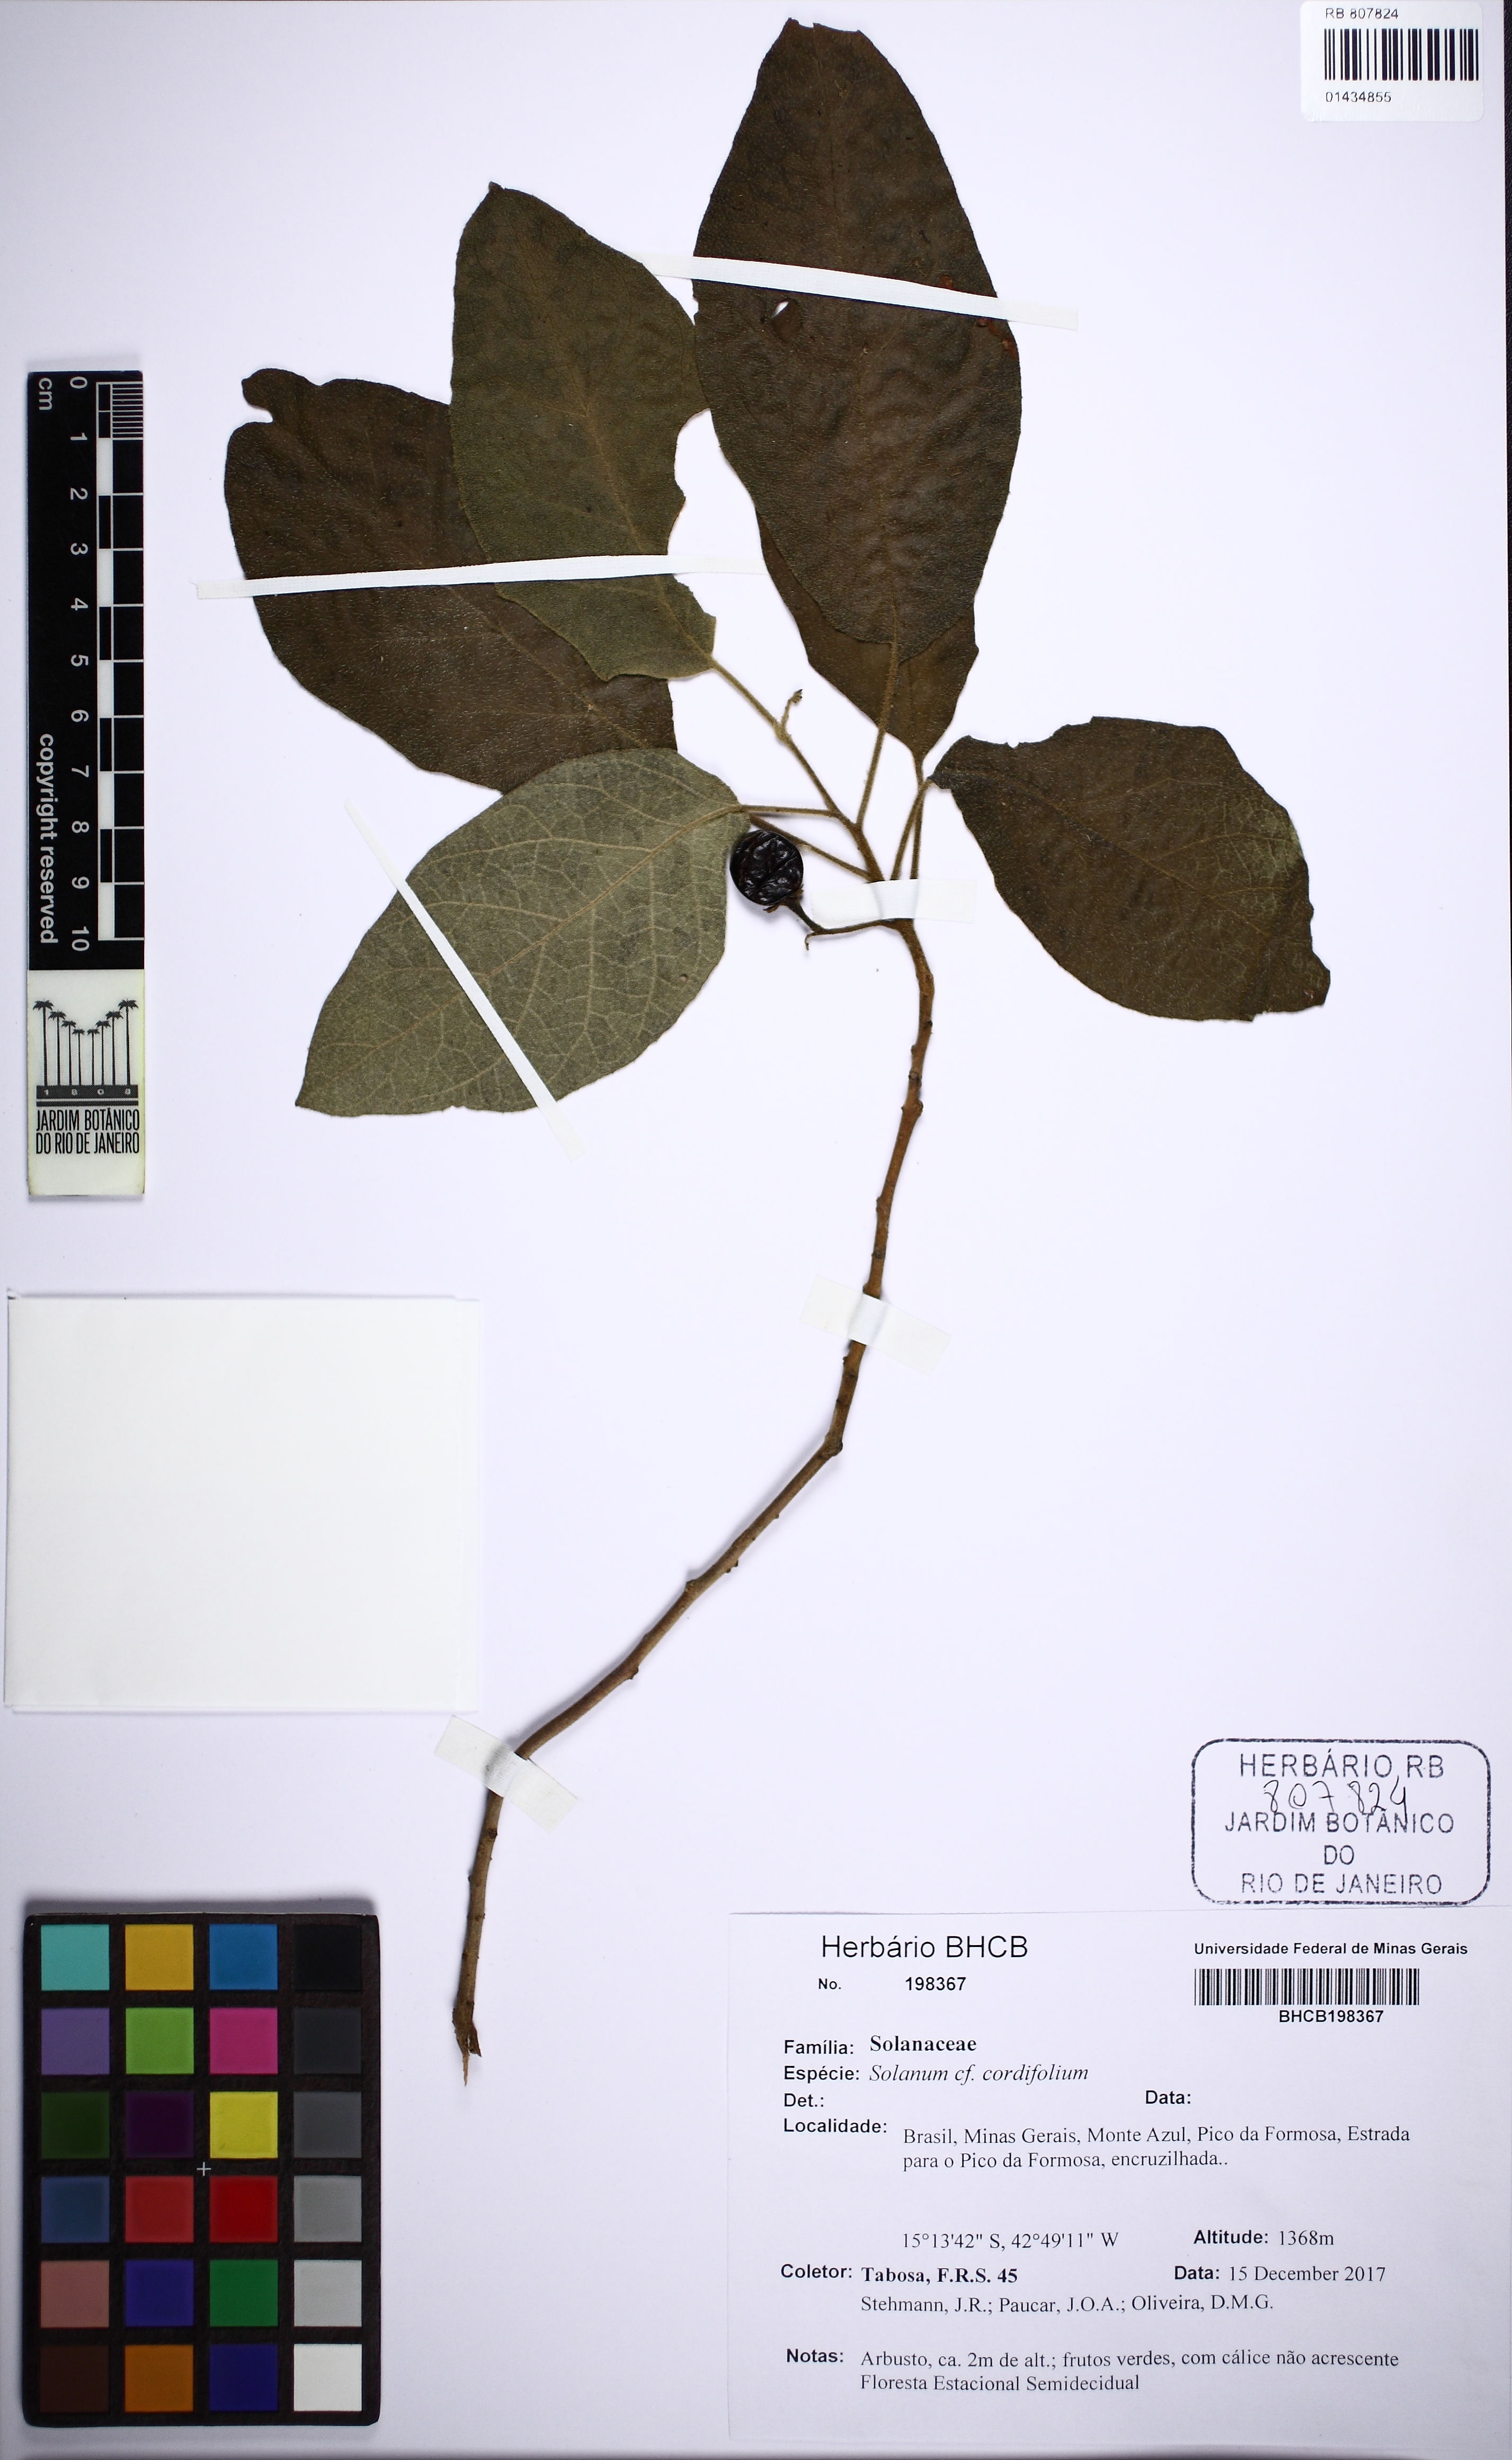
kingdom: Plantae
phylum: Tracheophyta
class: Magnoliopsida
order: Solanales
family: Solanaceae
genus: Solanum
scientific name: Solanum cordifolium
